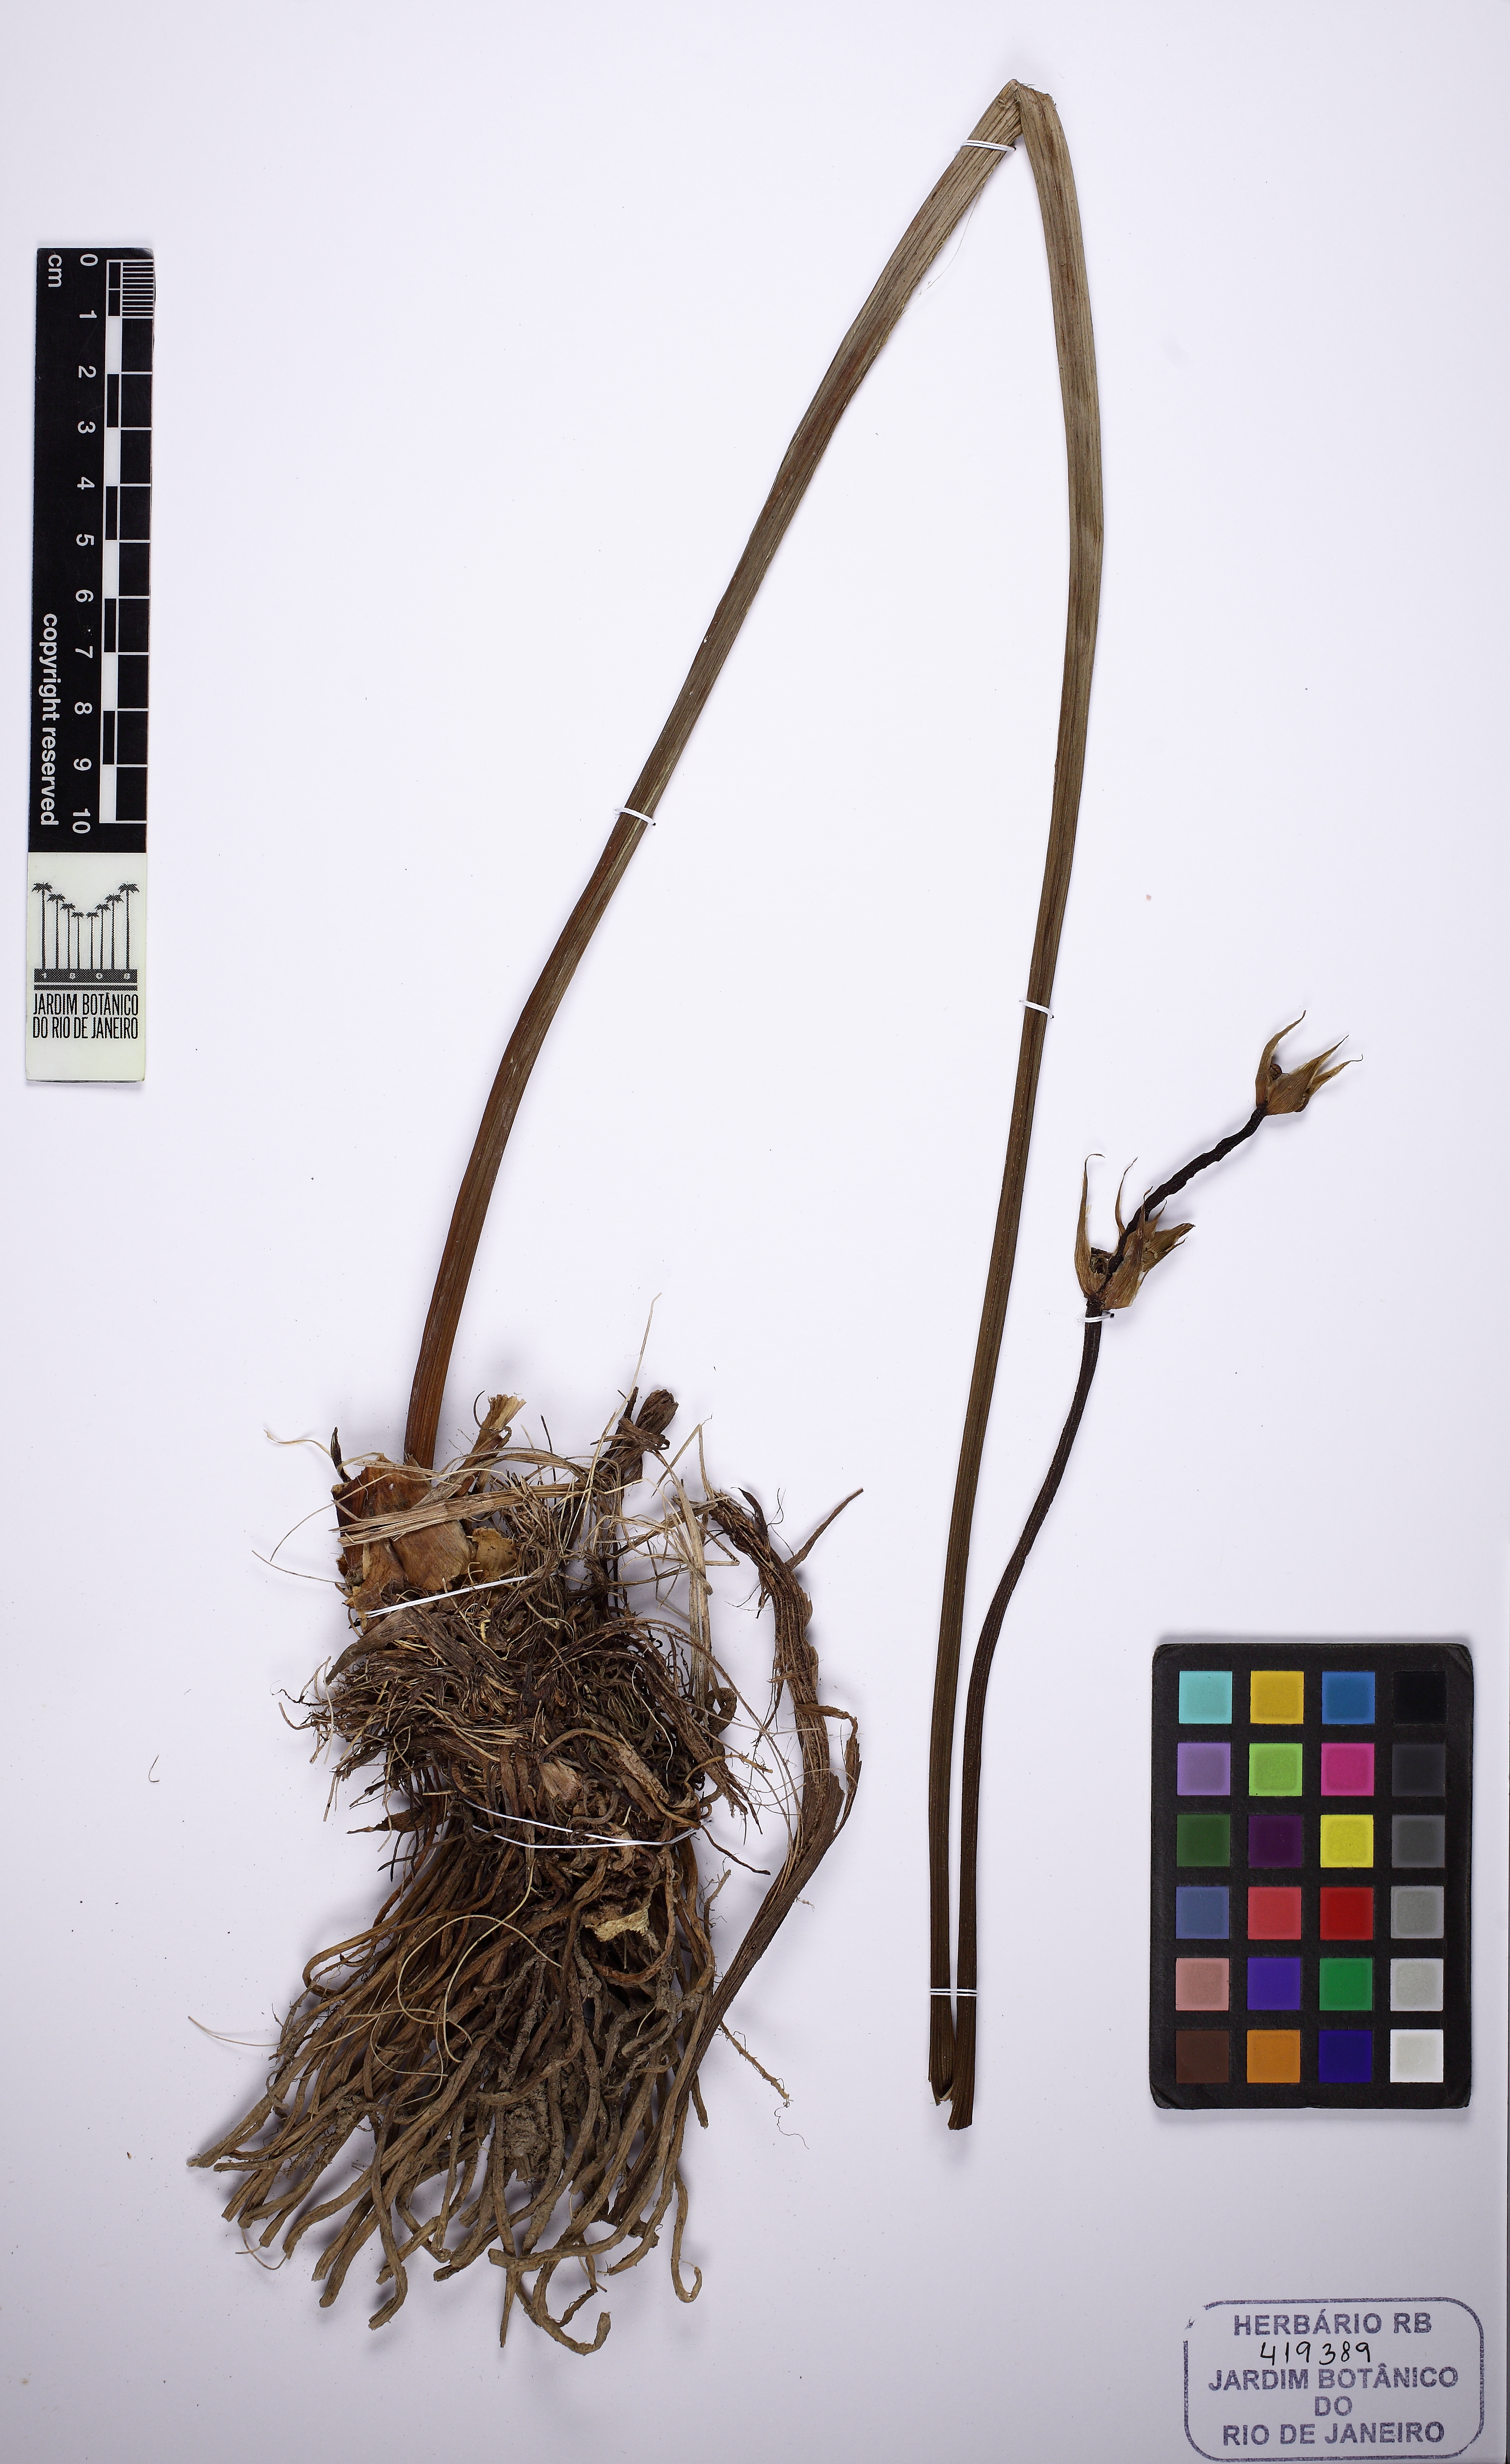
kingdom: Plantae
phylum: Tracheophyta
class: Liliopsida
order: Alismatales
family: Alismataceae
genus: Aquarius
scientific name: Aquarius grandiflorus
